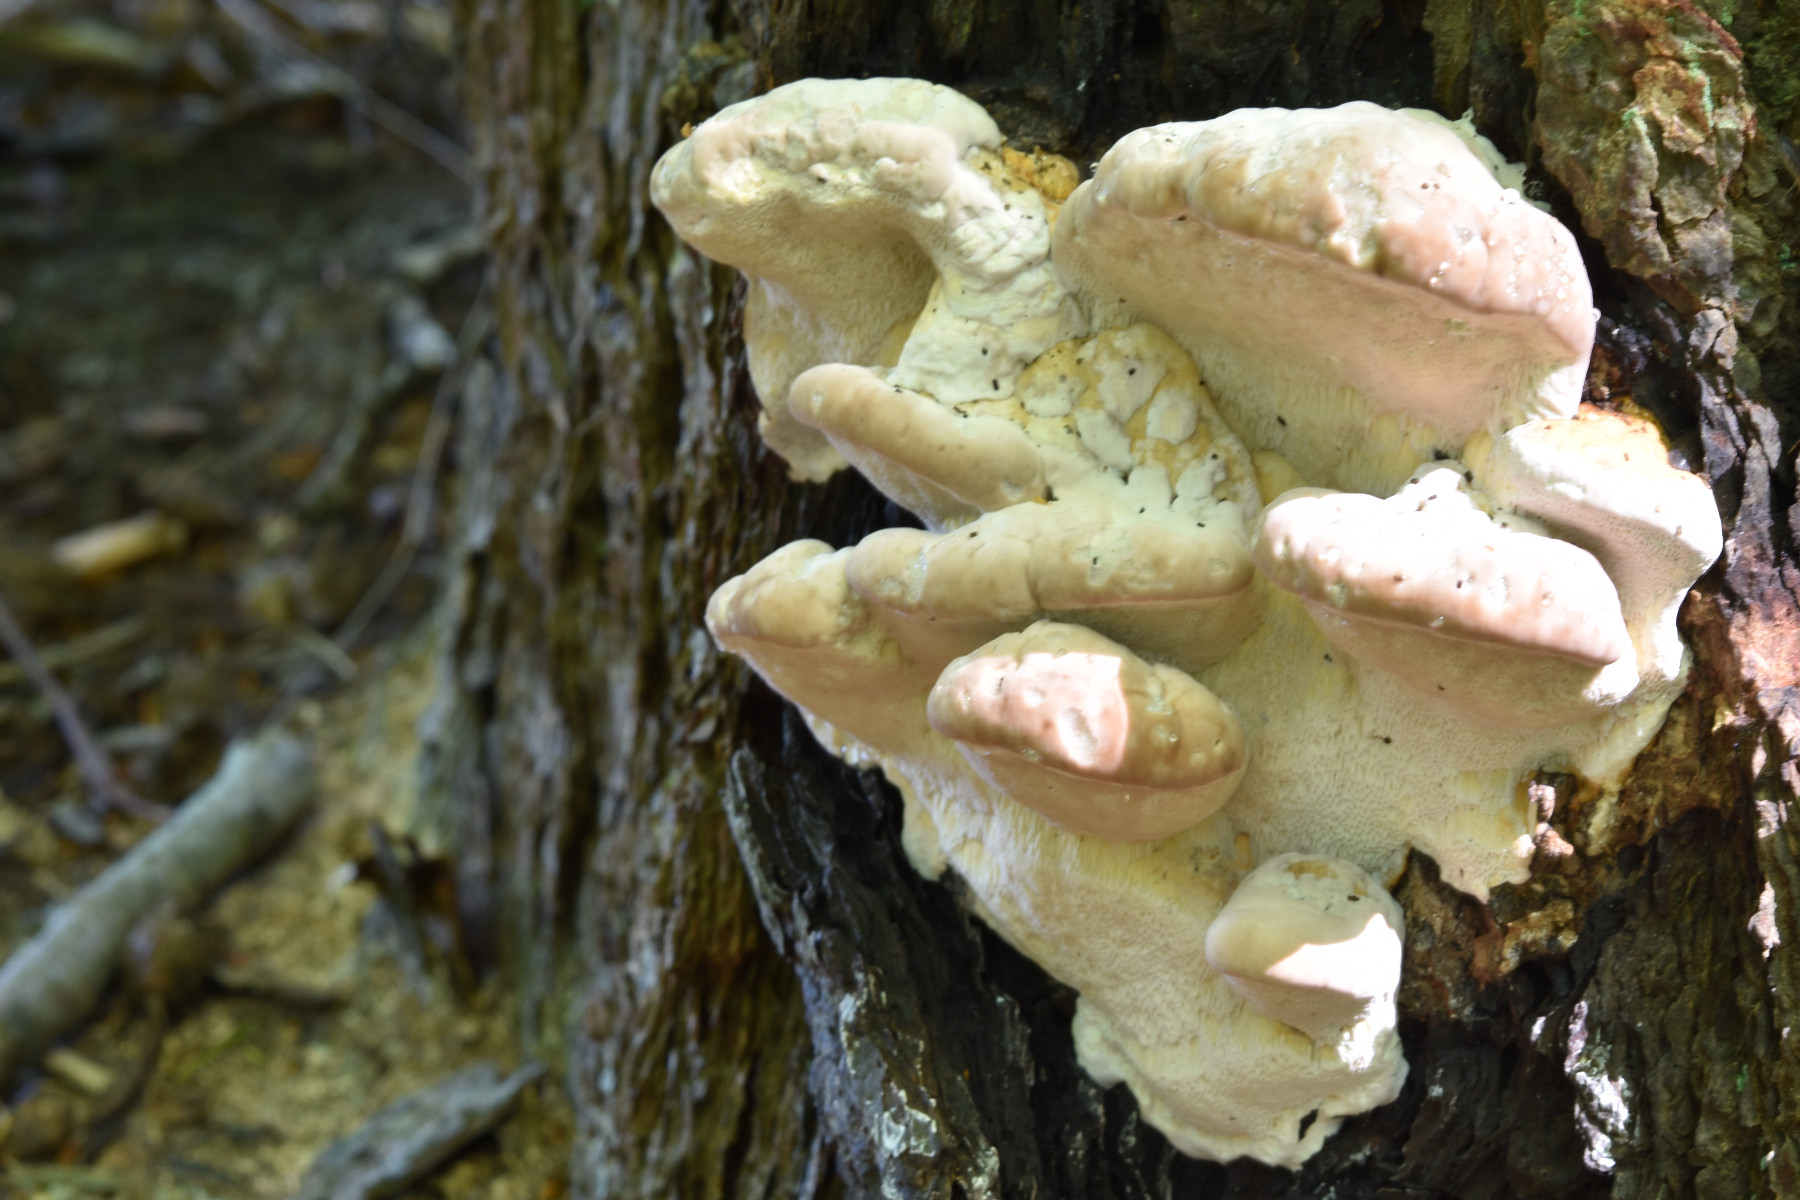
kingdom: Fungi
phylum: Basidiomycota
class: Agaricomycetes
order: Polyporales
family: Fomitopsidaceae
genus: Fomitopsis
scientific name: Fomitopsis pinicola
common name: randbæltet hovporesvamp
